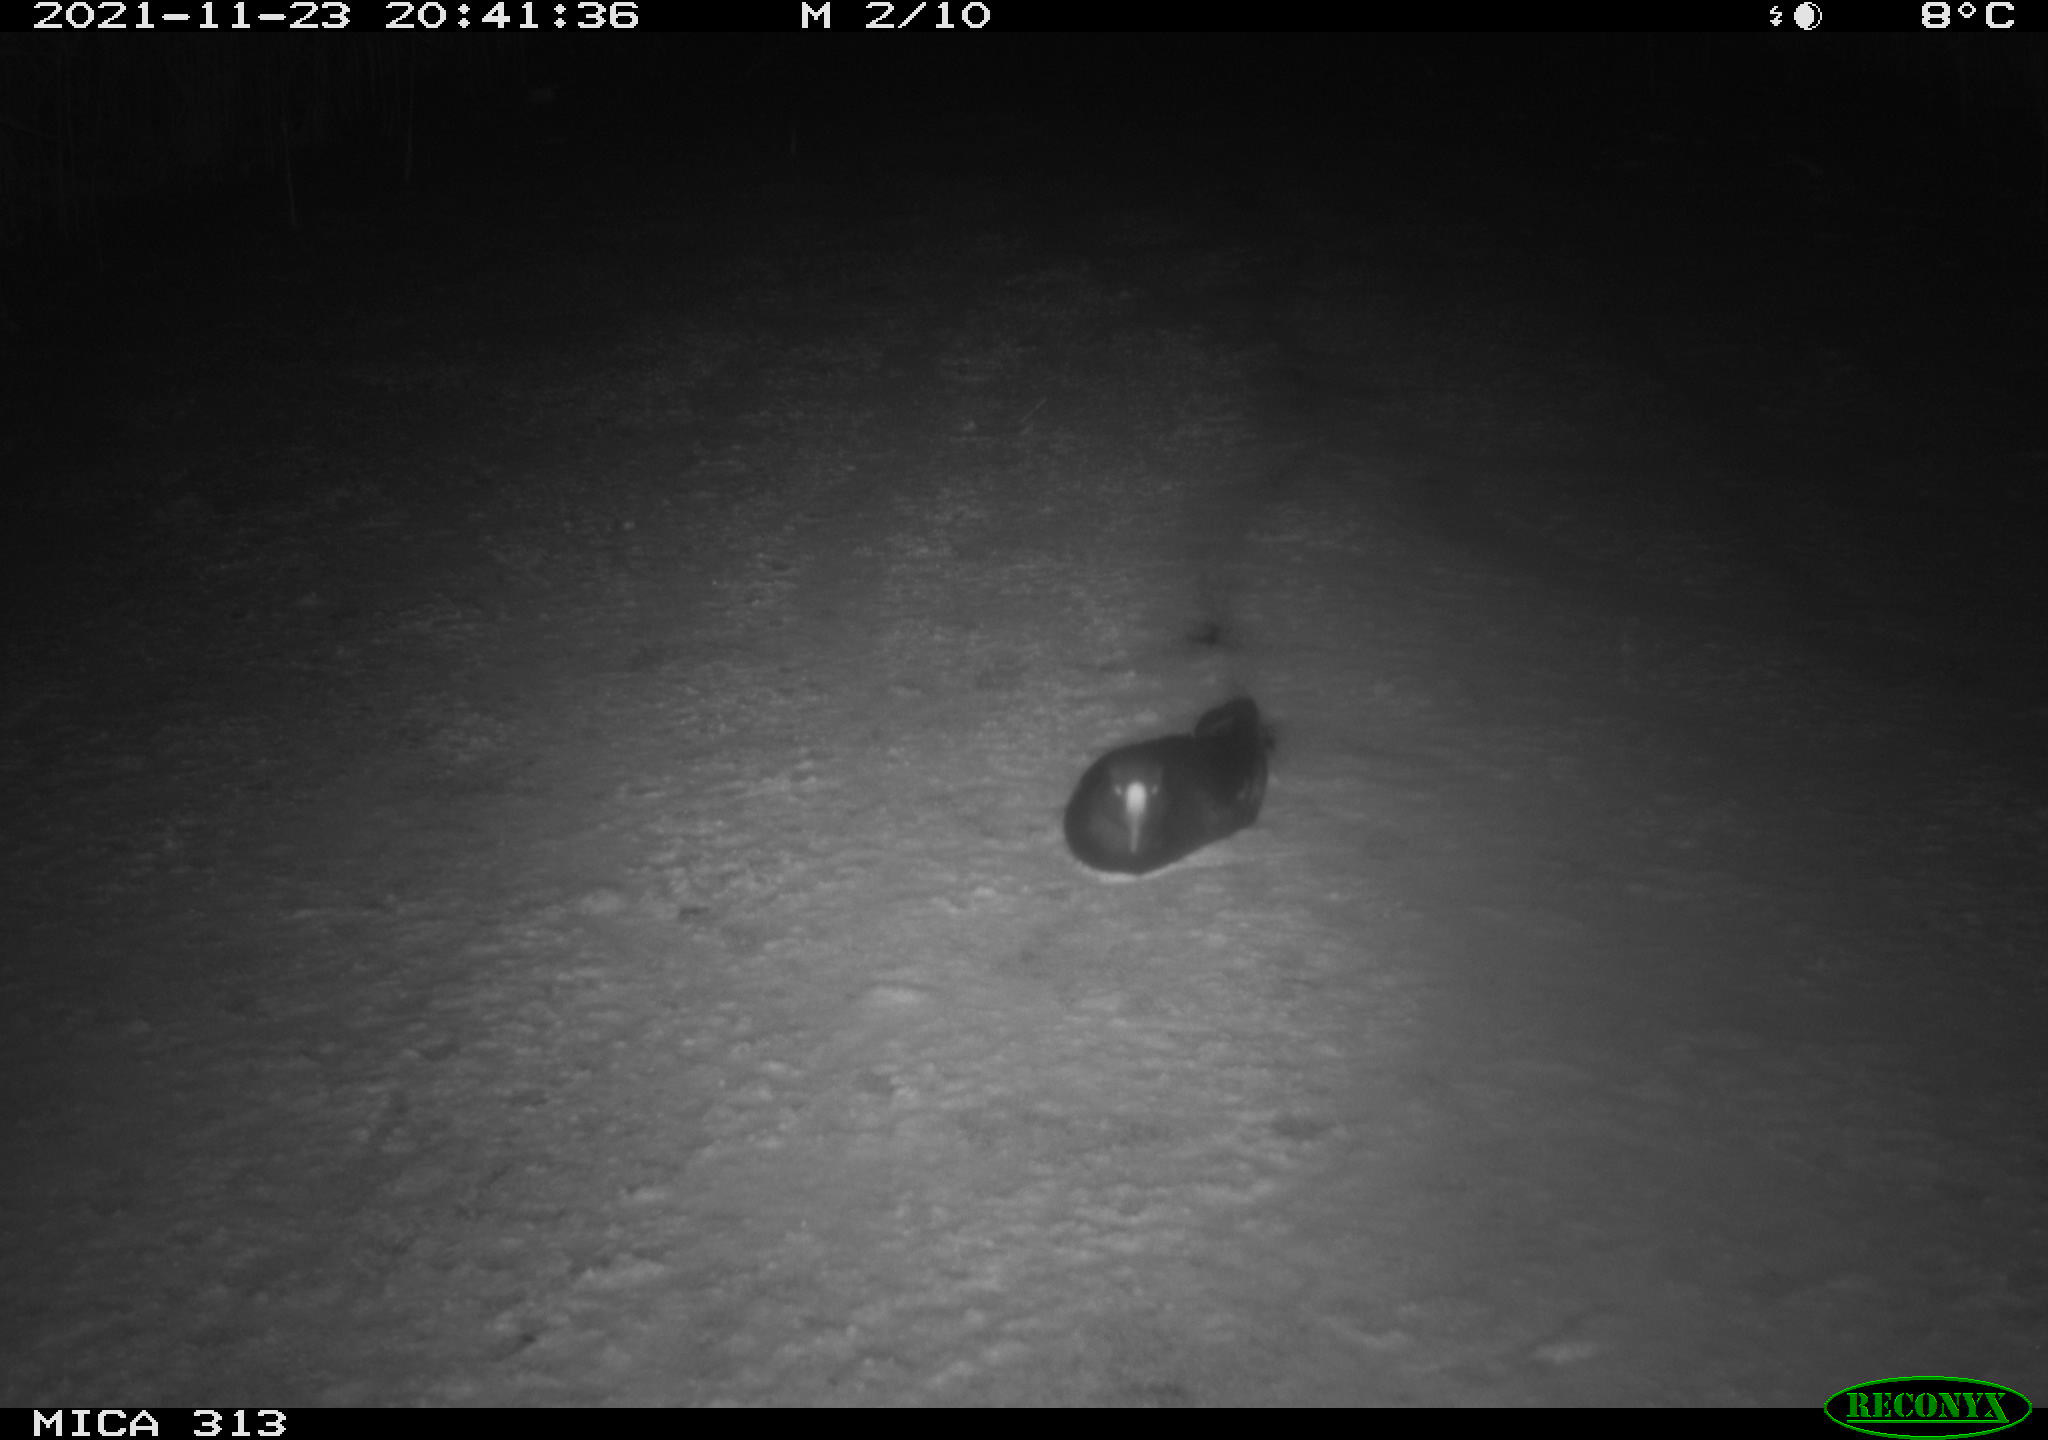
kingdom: Animalia
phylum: Chordata
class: Aves
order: Gruiformes
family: Rallidae
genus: Gallinula
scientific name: Gallinula chloropus
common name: Common moorhen
